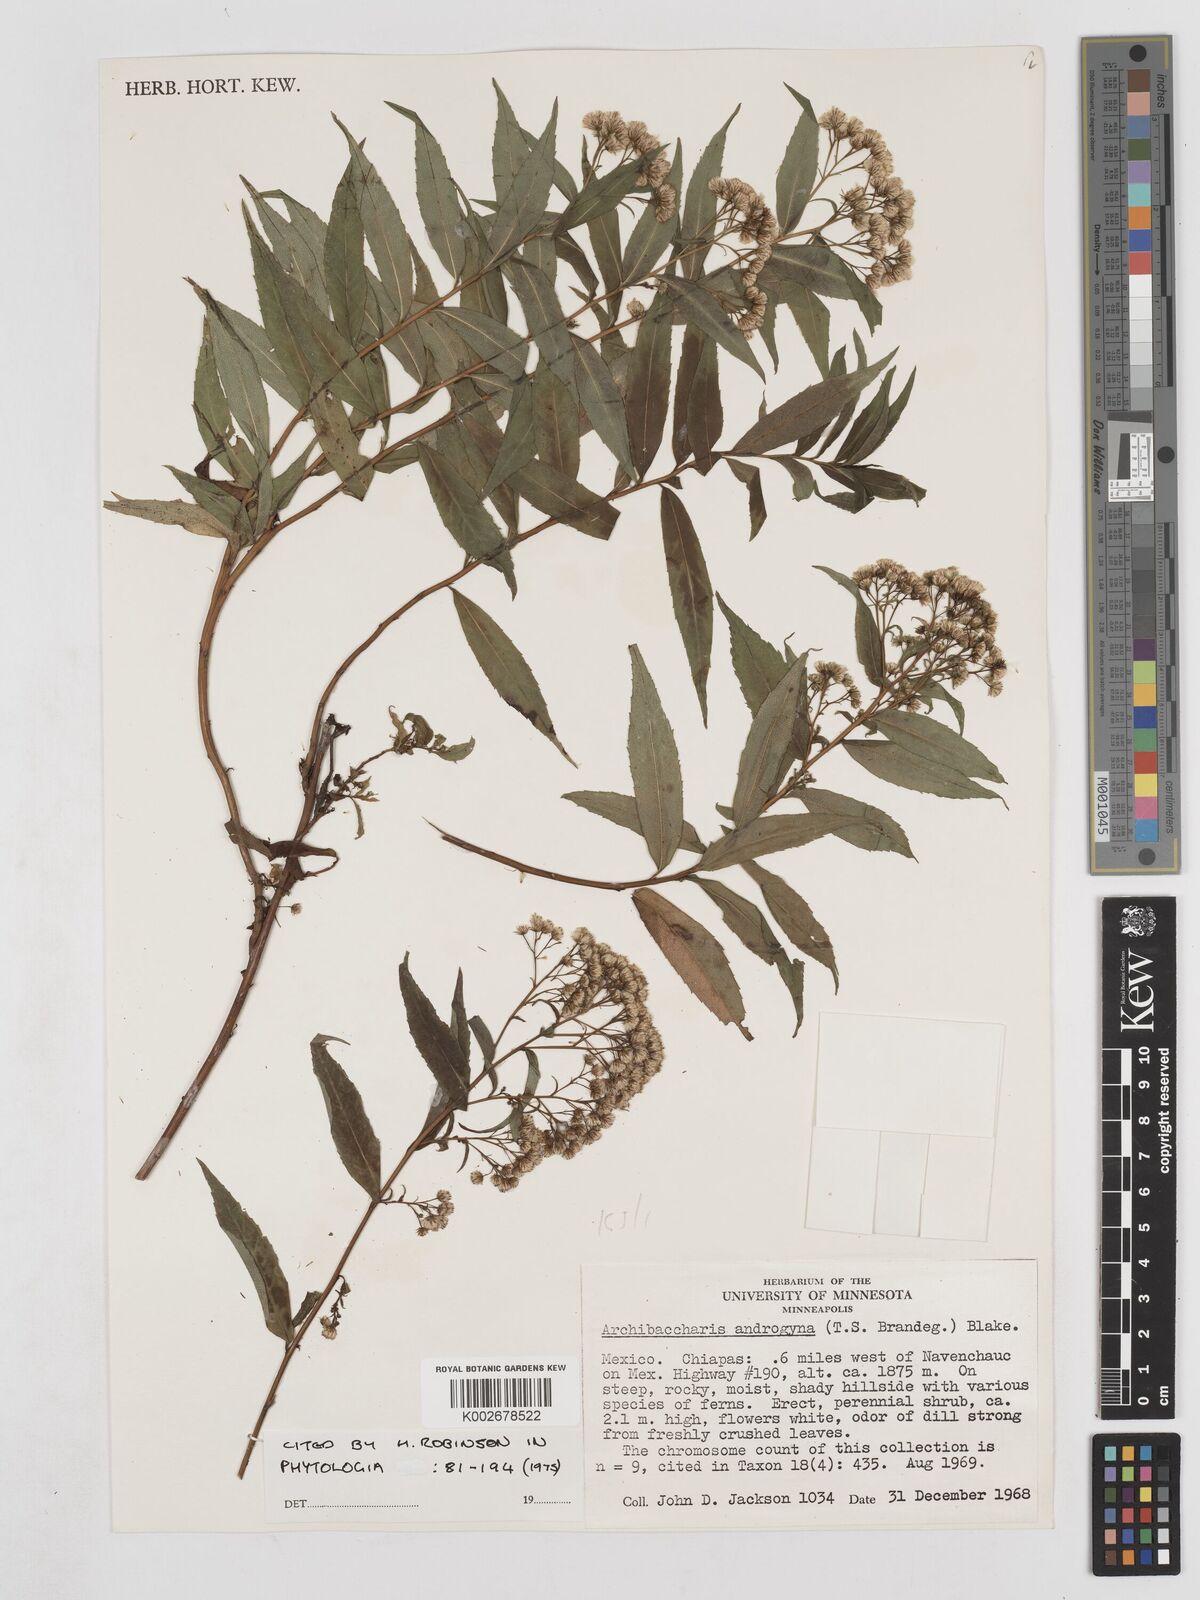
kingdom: Plantae
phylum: Tracheophyta
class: Magnoliopsida
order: Asterales
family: Asteraceae
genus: Archibaccharis
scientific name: Archibaccharis androgyna
